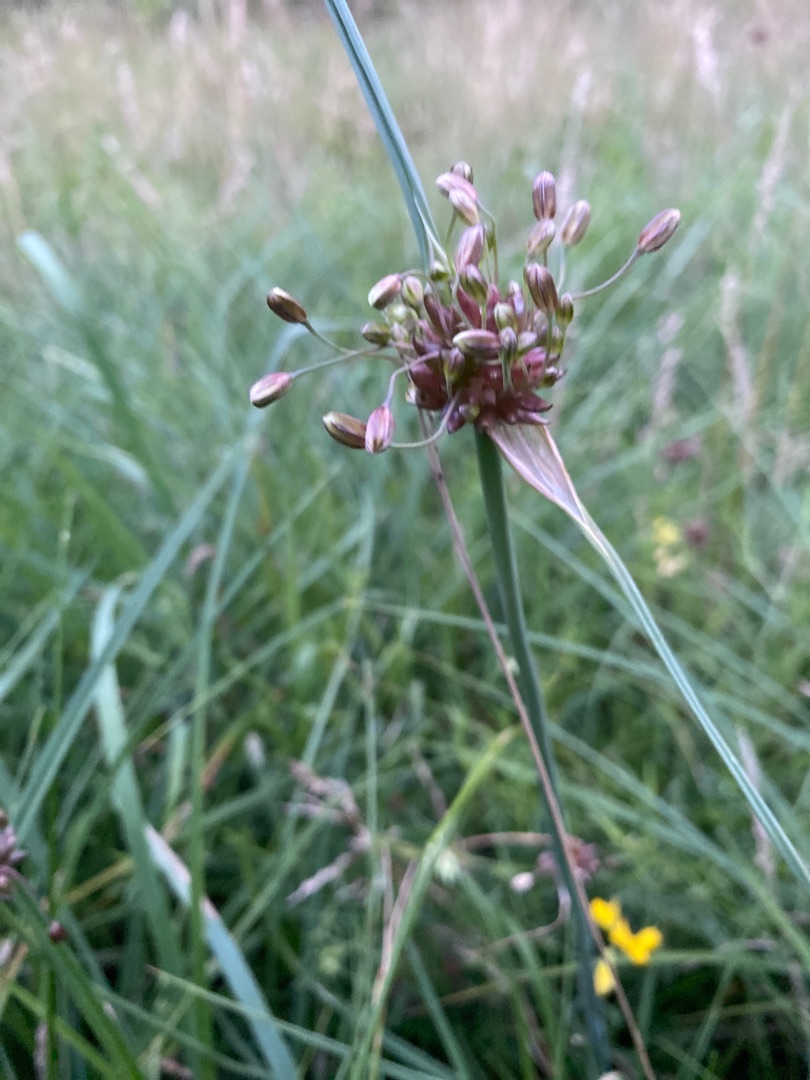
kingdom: Plantae
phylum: Tracheophyta
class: Liliopsida
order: Asparagales
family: Amaryllidaceae
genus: Allium
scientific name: Allium oleraceum
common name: Vild løg
